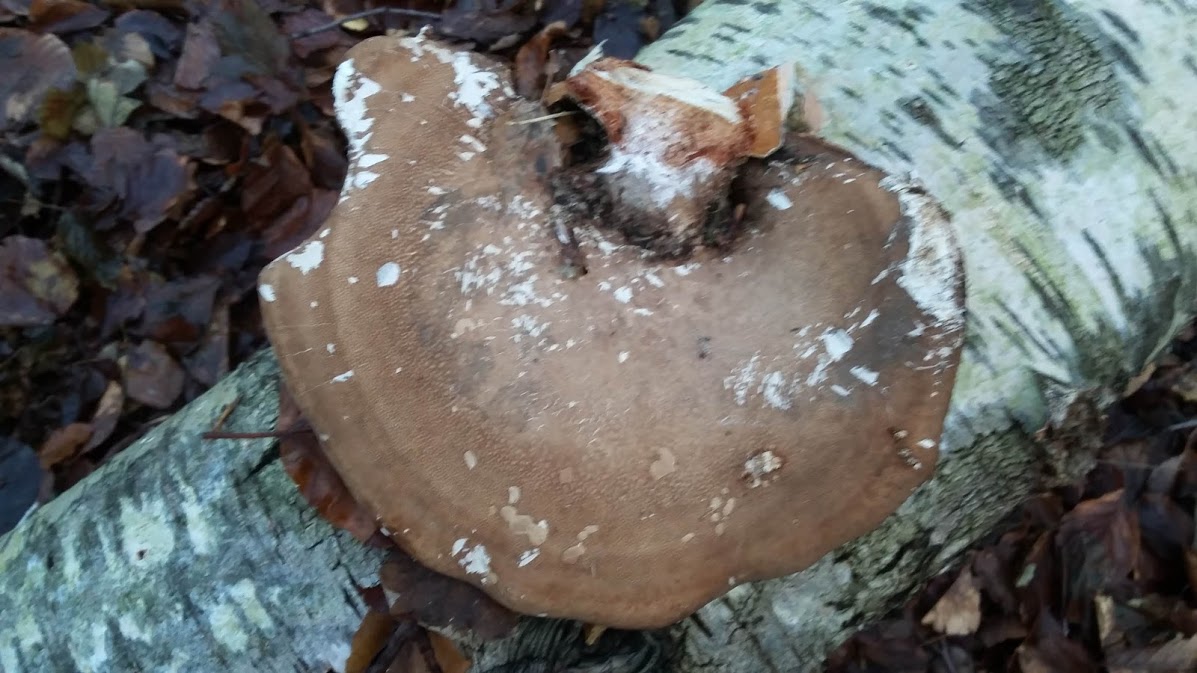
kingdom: Fungi
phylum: Basidiomycota
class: Agaricomycetes
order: Polyporales
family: Fomitopsidaceae
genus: Fomitopsis
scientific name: Fomitopsis betulina
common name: birkeporesvamp
